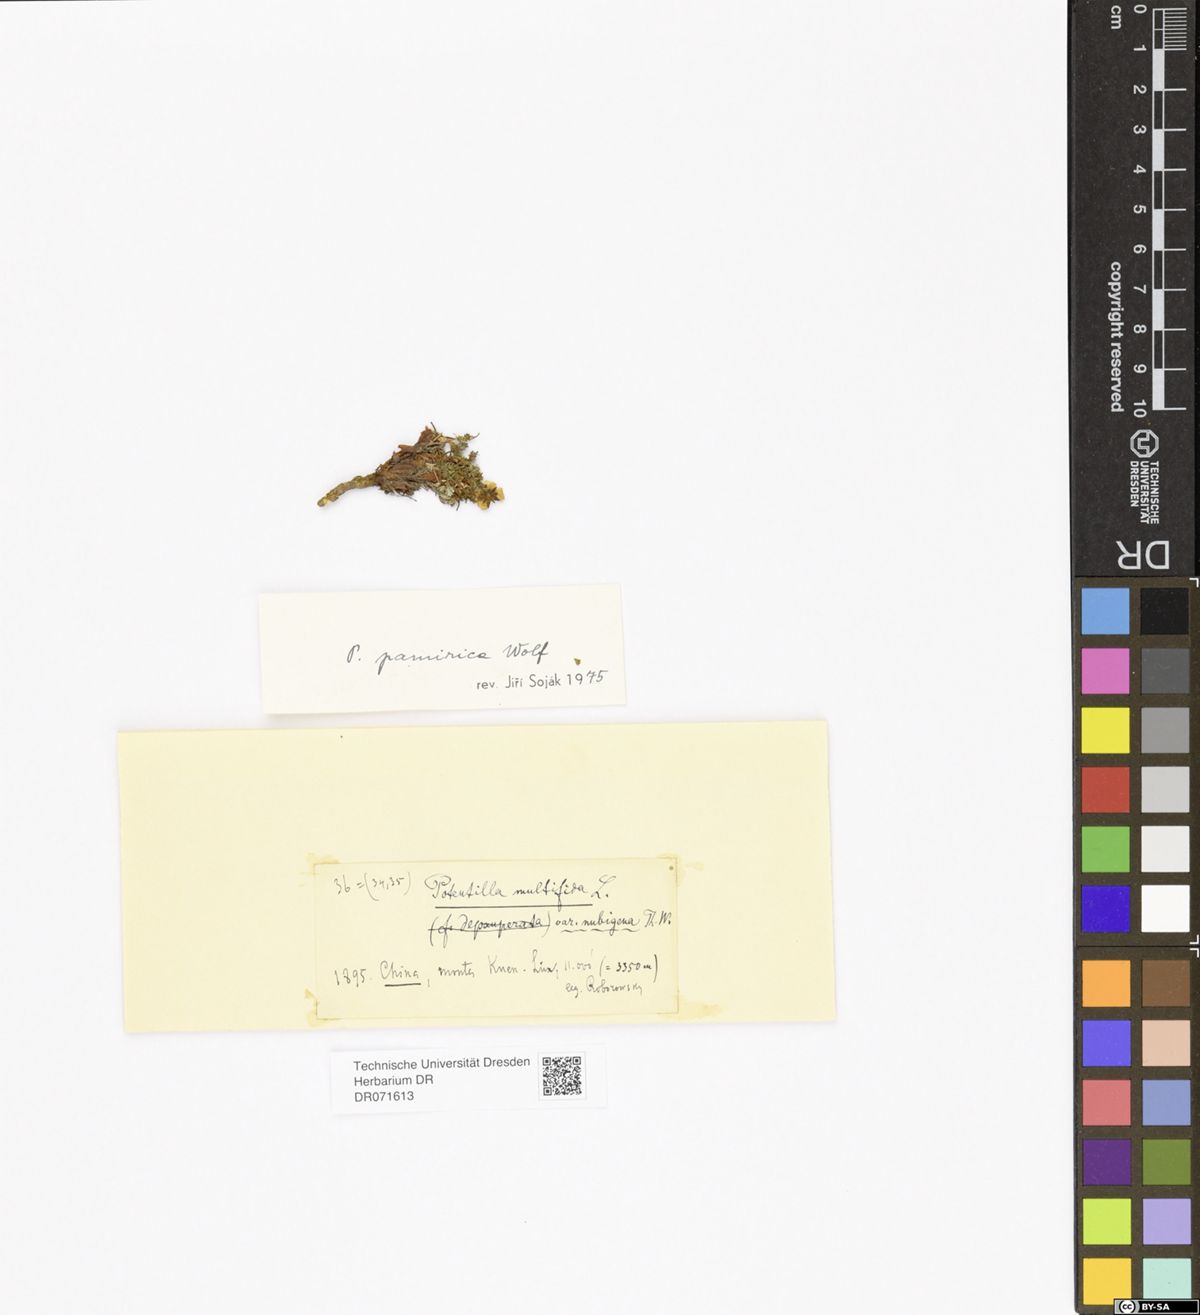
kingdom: Plantae
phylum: Tracheophyta
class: Magnoliopsida
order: Rosales
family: Rosaceae
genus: Potentilla
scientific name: Potentilla pamirica
